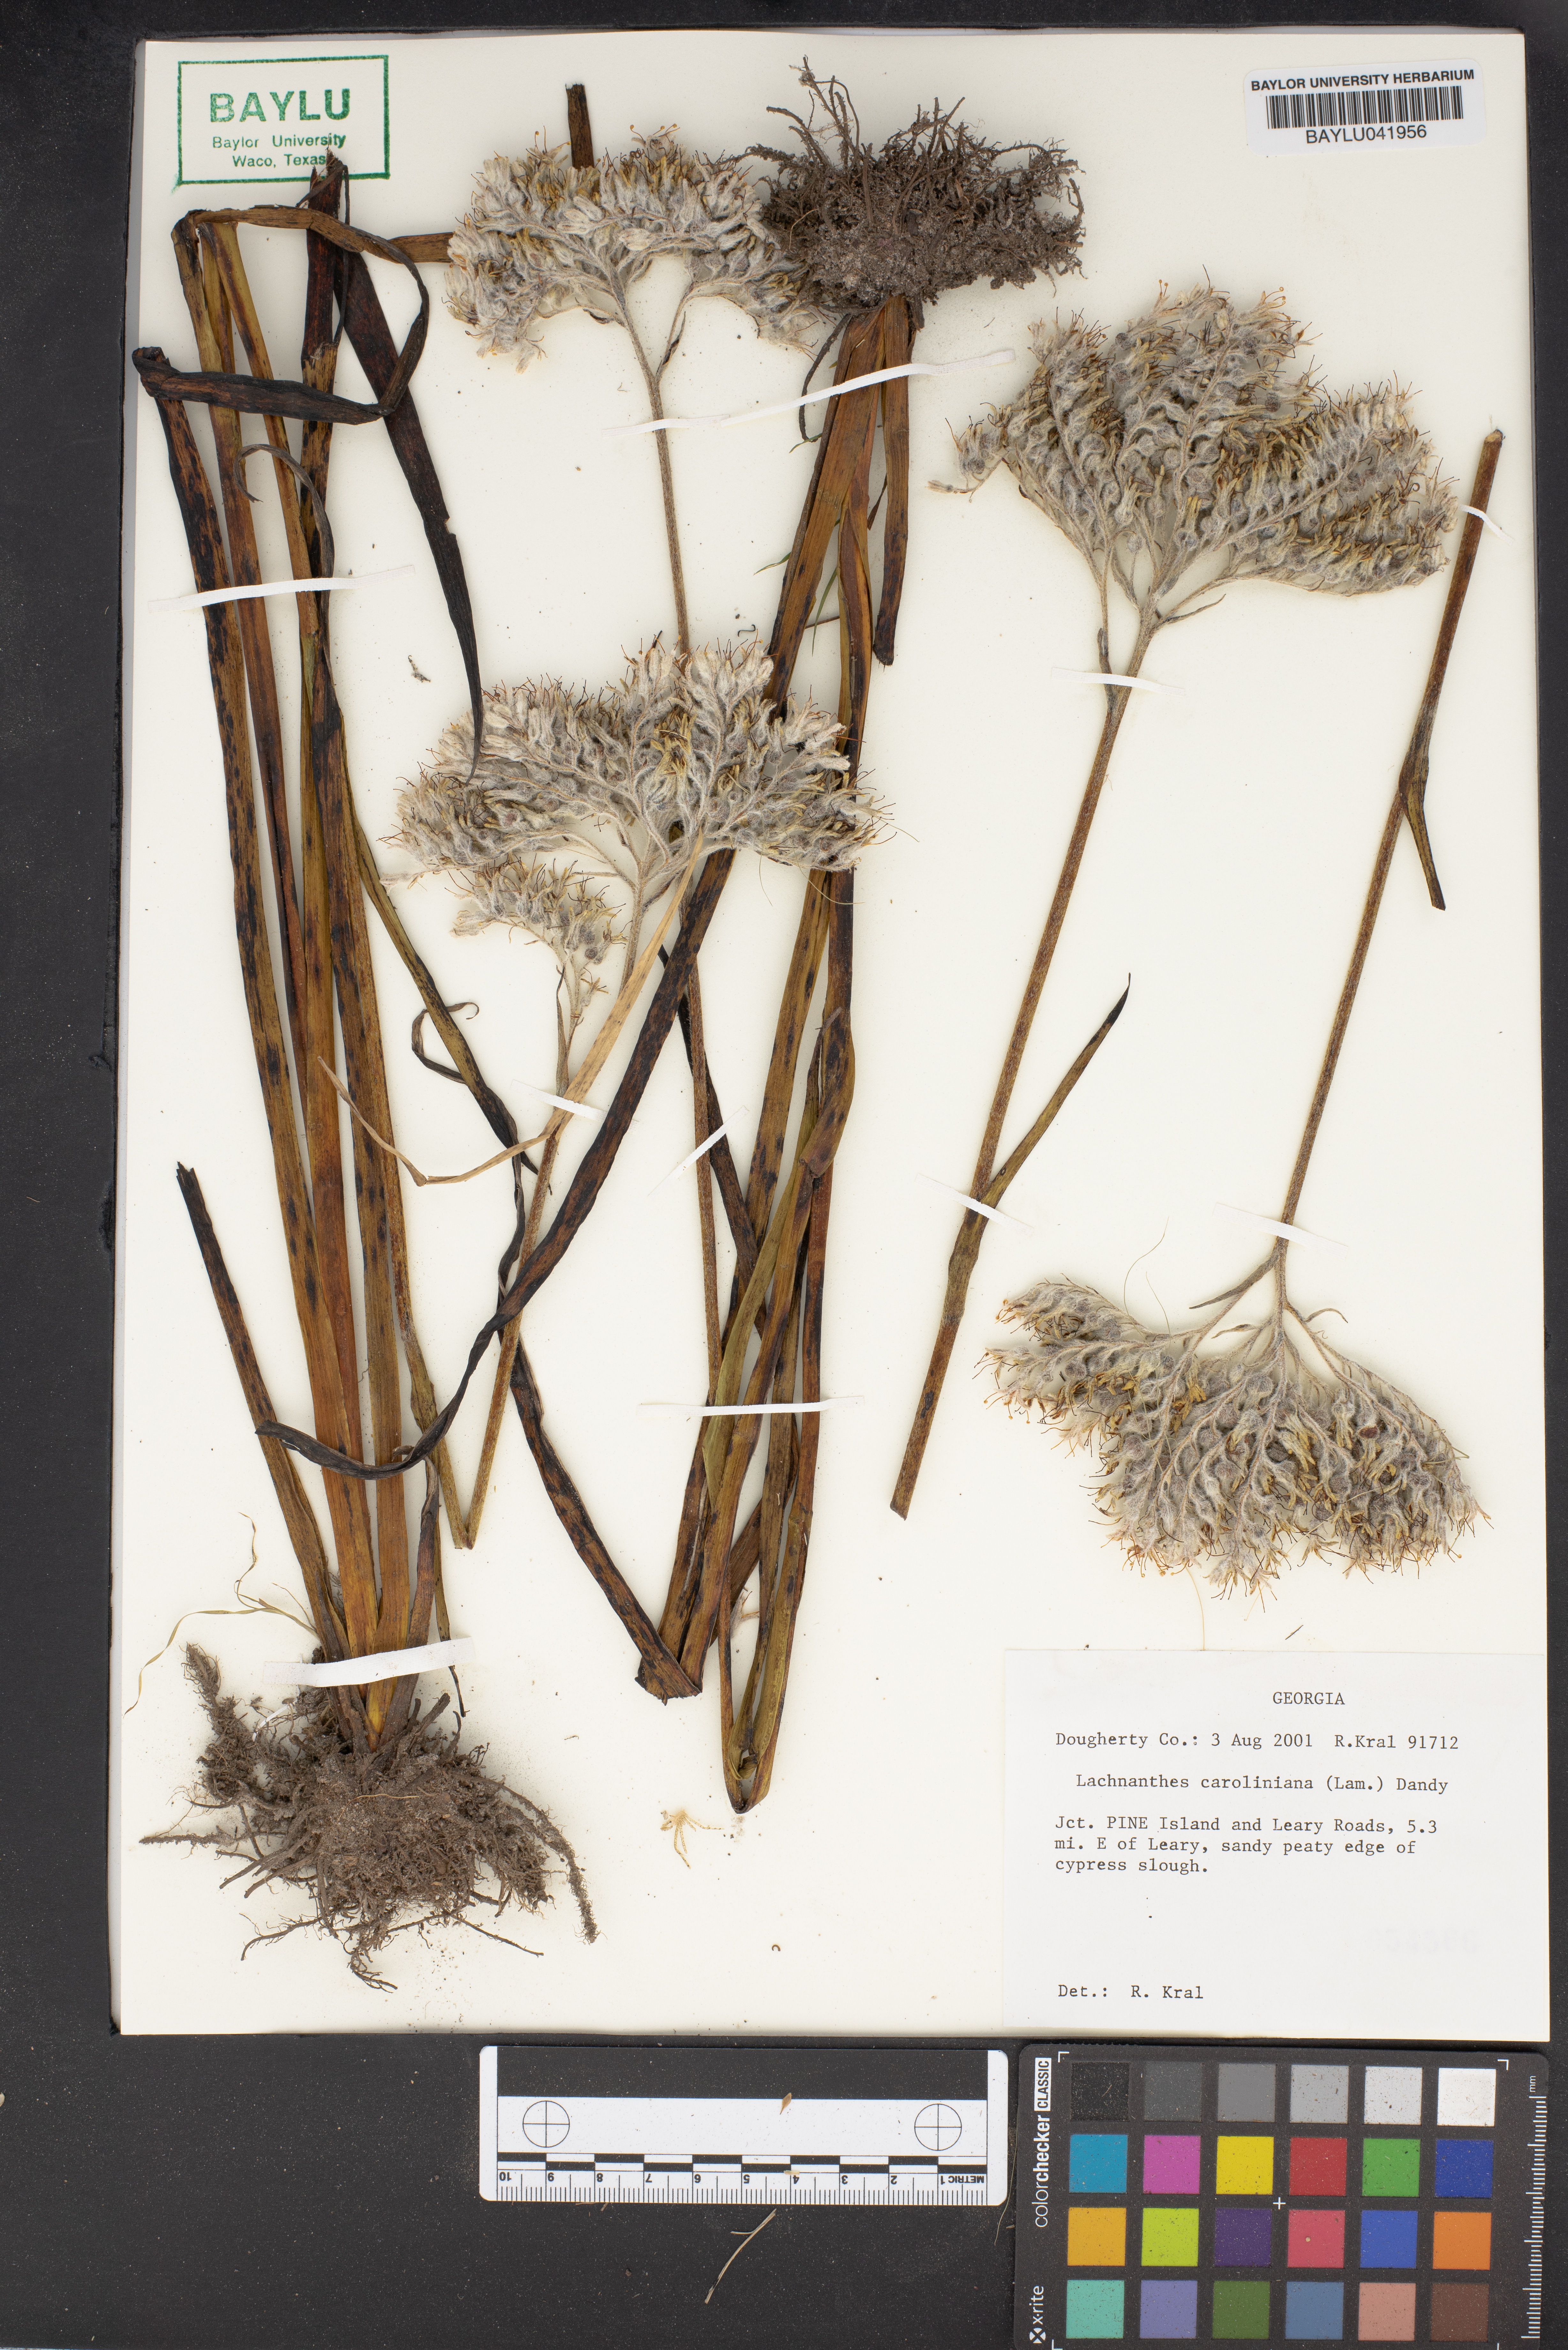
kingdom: Plantae
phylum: Tracheophyta
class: Liliopsida
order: Commelinales
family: Haemodoraceae
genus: Lachnanthes
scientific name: Lachnanthes caroliniana
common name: Carolina redroot
